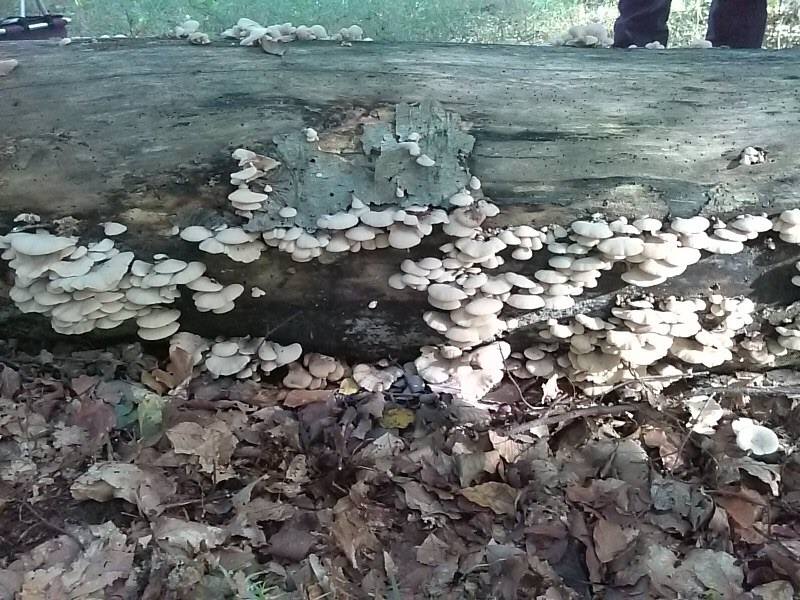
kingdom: Fungi
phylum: Basidiomycota
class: Agaricomycetes
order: Russulales
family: Auriscalpiaceae
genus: Lentinellus
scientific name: Lentinellus ursinus
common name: børstehåret savbladhat
